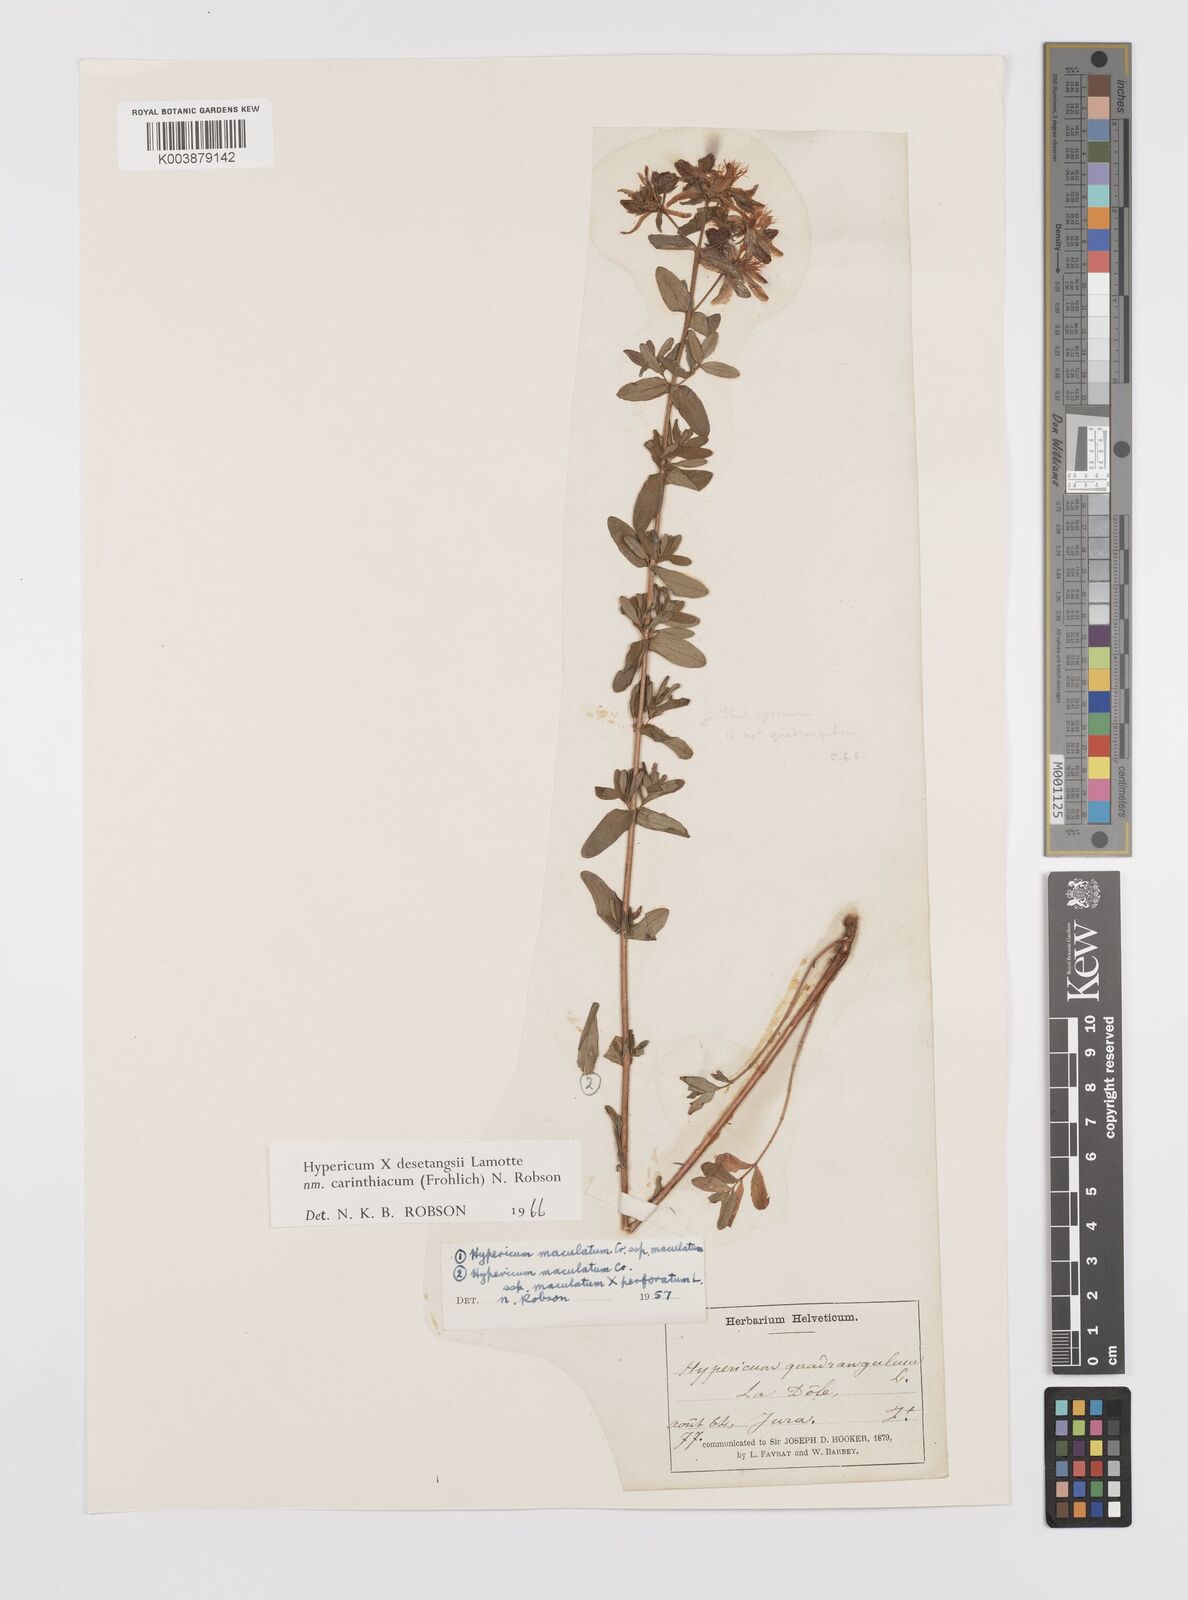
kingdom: Plantae
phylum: Tracheophyta
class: Magnoliopsida
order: Malpighiales
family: Hypericaceae
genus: Hypericum
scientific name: Hypericum maculatum
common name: Imperforate st. john's-wort
